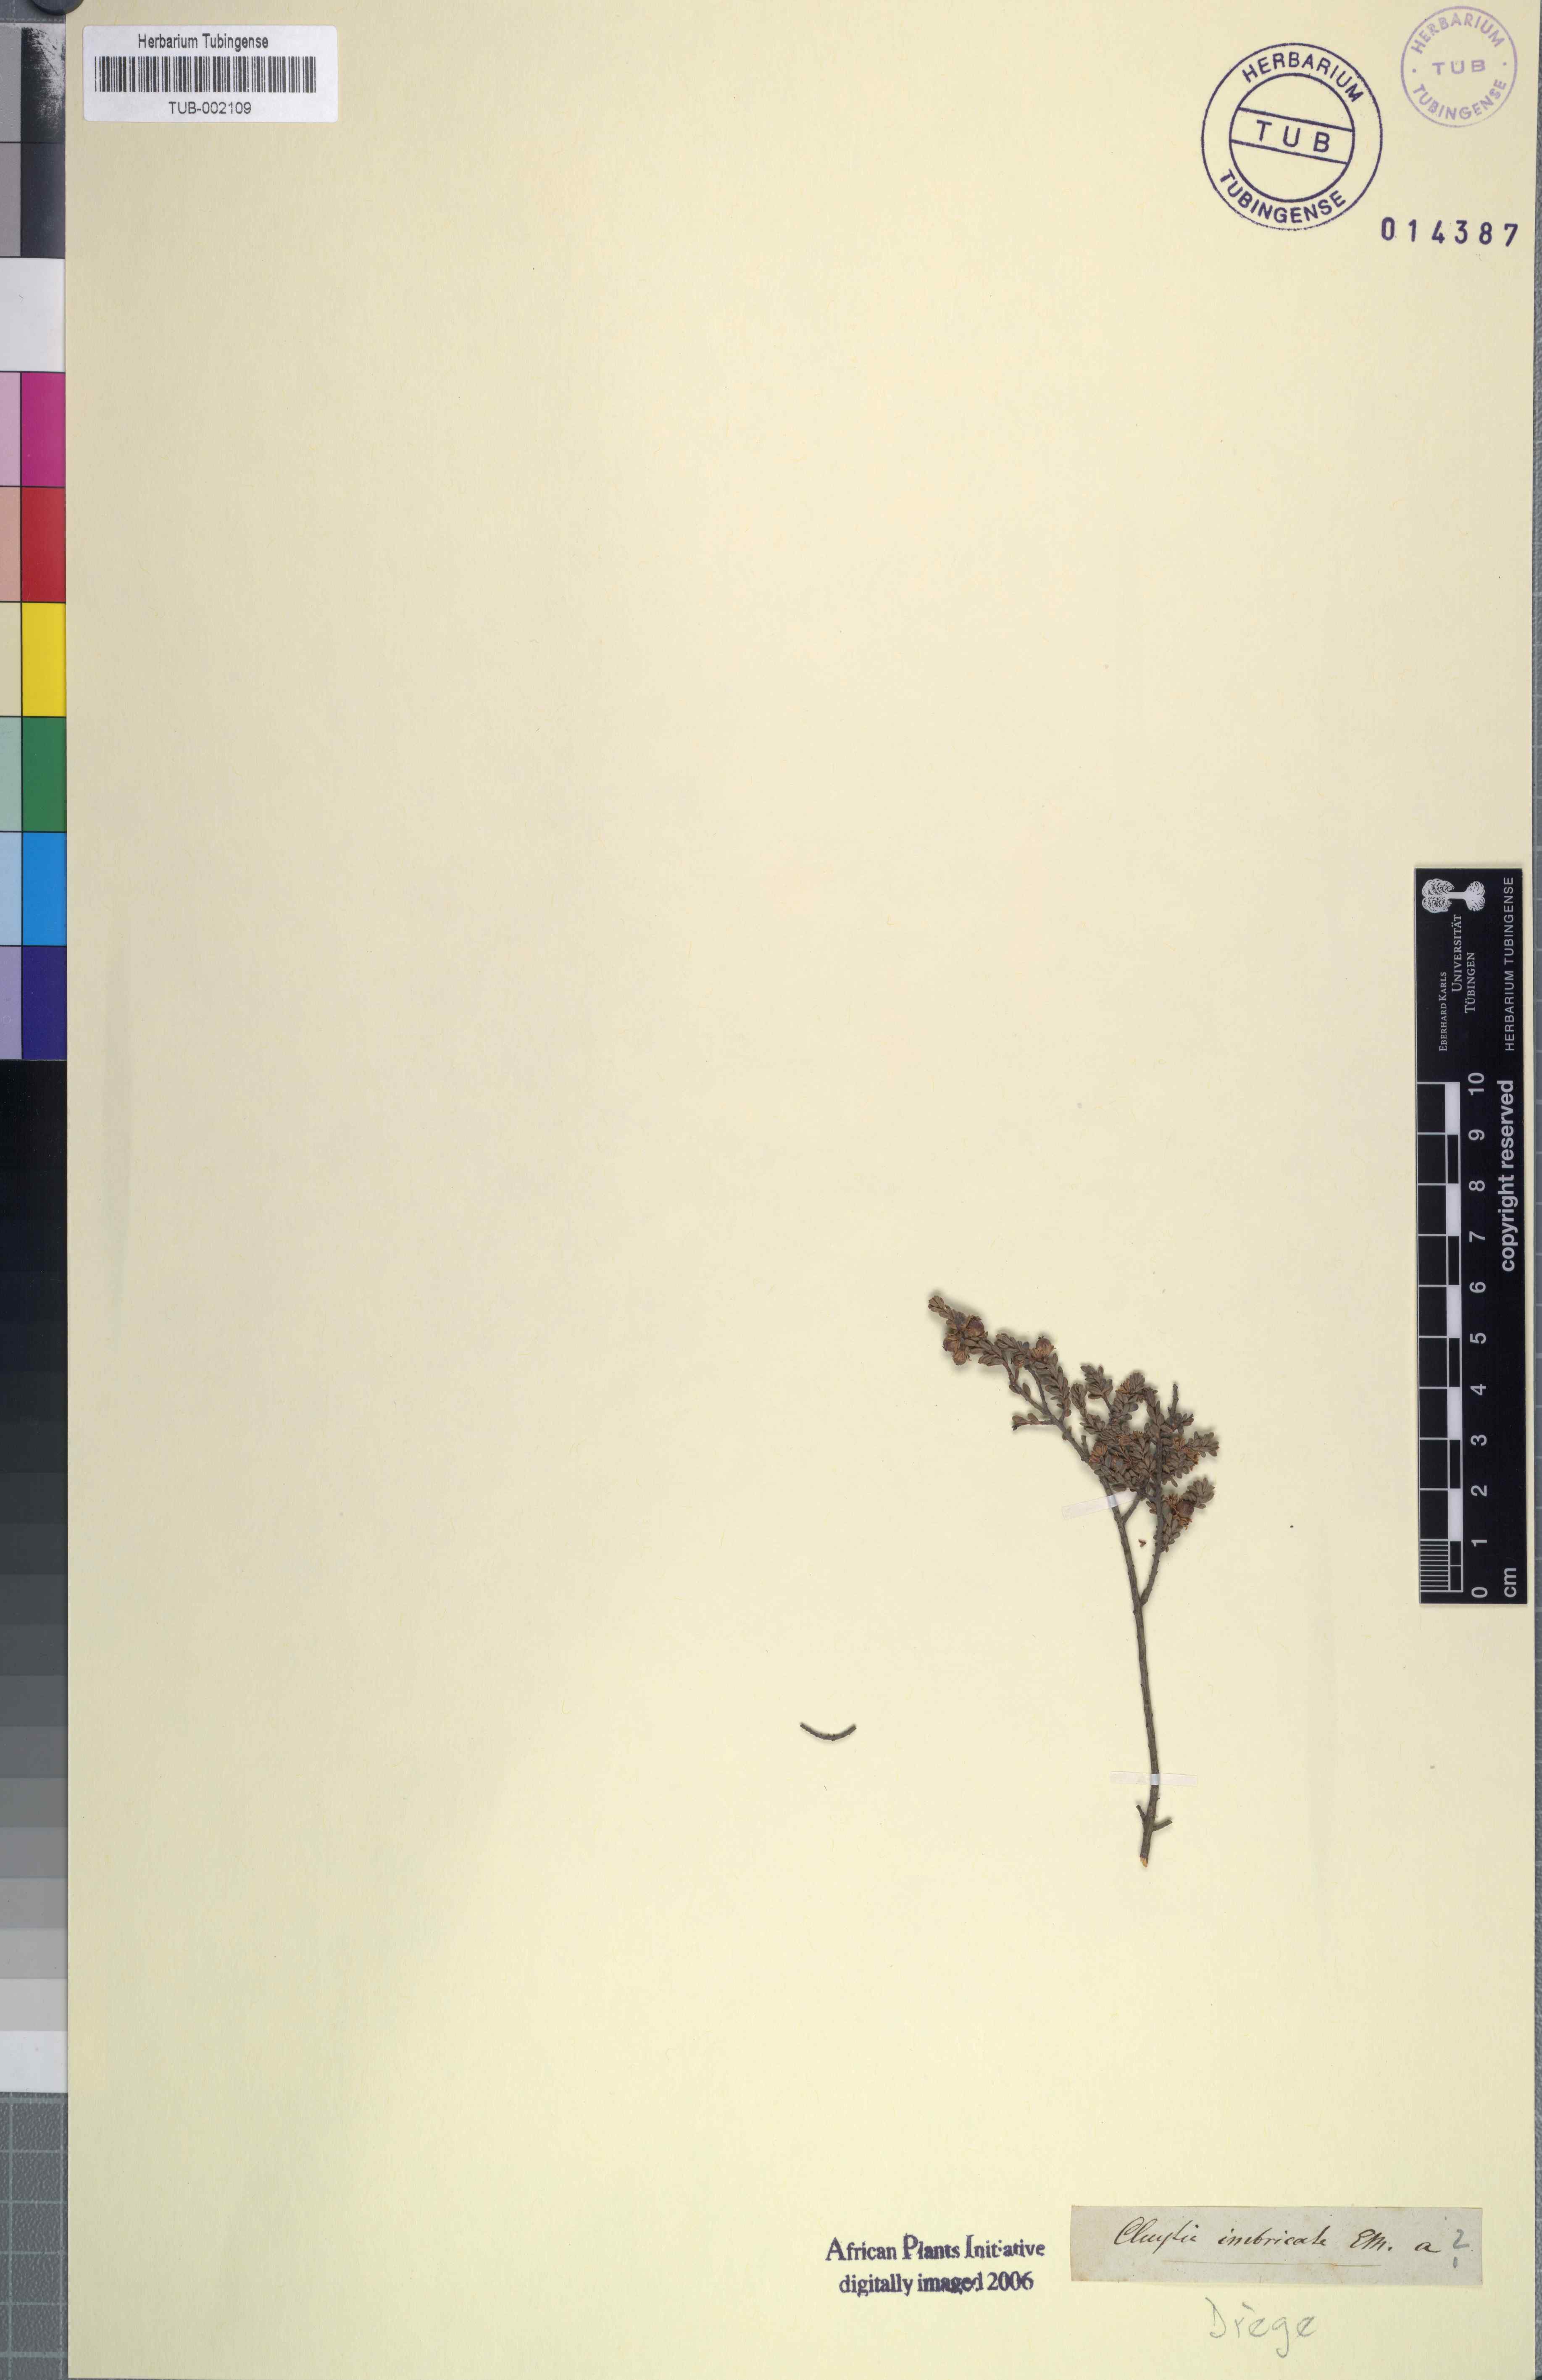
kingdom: Plantae
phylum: Tracheophyta
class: Magnoliopsida
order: Malpighiales
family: Peraceae
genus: Clutia
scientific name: Clutia imbricata
